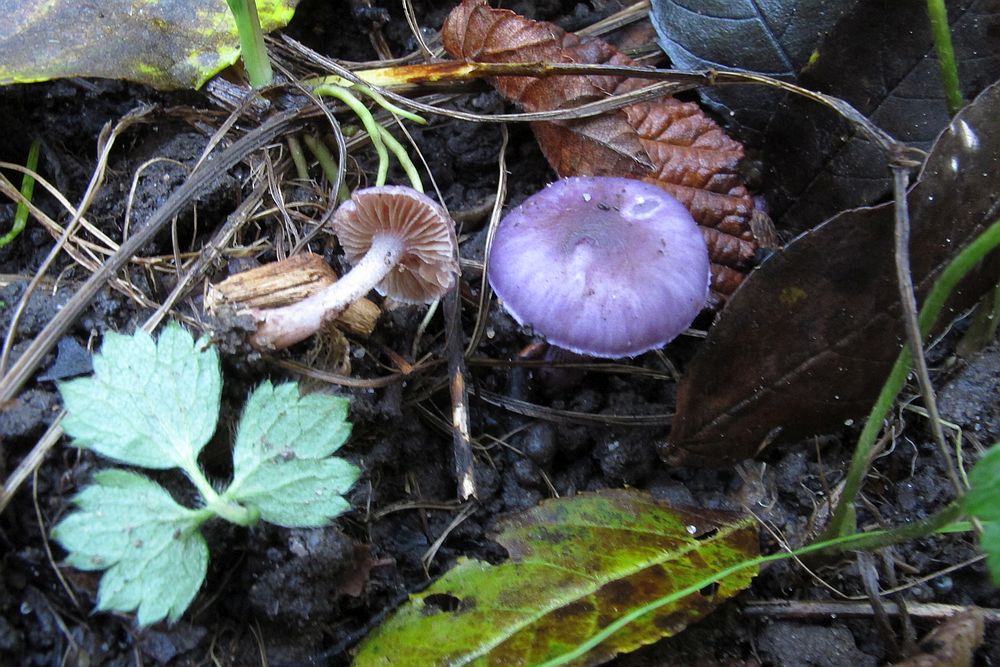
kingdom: Fungi
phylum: Basidiomycota
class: Agaricomycetes
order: Agaricales
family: Inocybaceae
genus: Inocybe
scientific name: Inocybe geophylla
